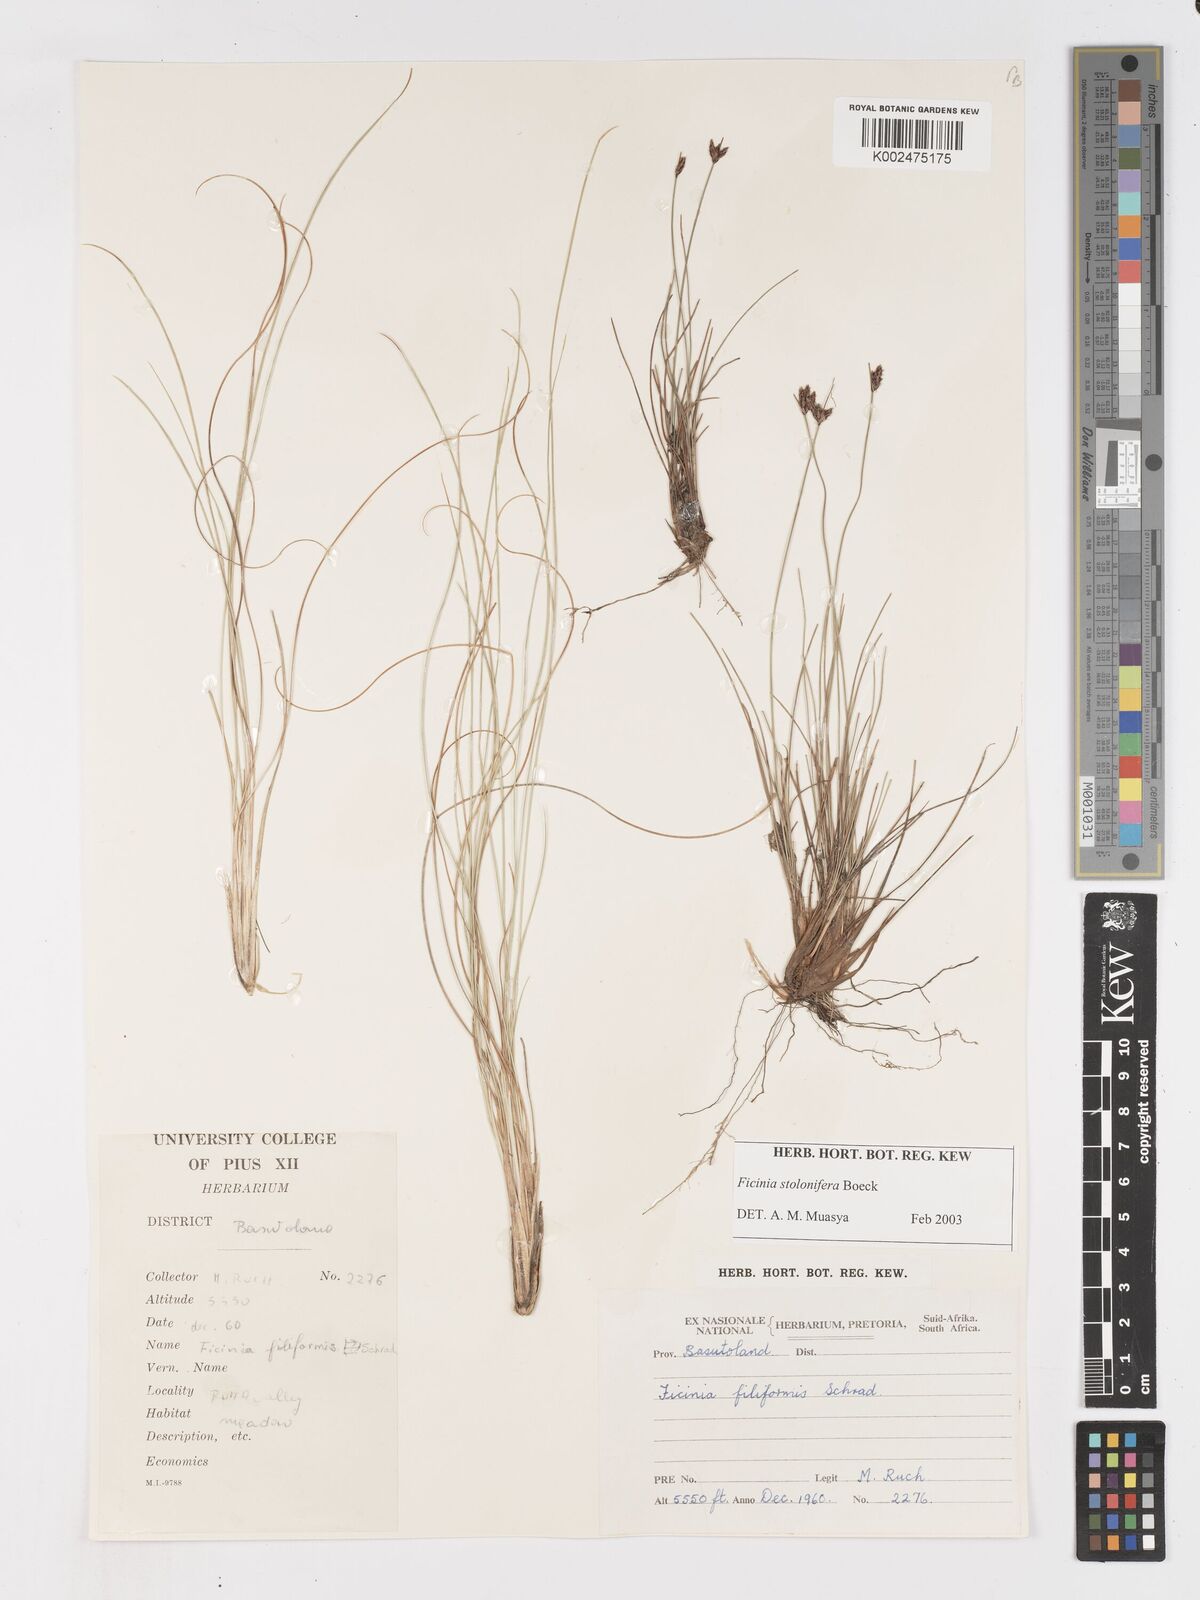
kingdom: Plantae
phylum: Tracheophyta
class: Liliopsida
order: Poales
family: Cyperaceae
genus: Ficinia
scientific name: Ficinia stolonifera
